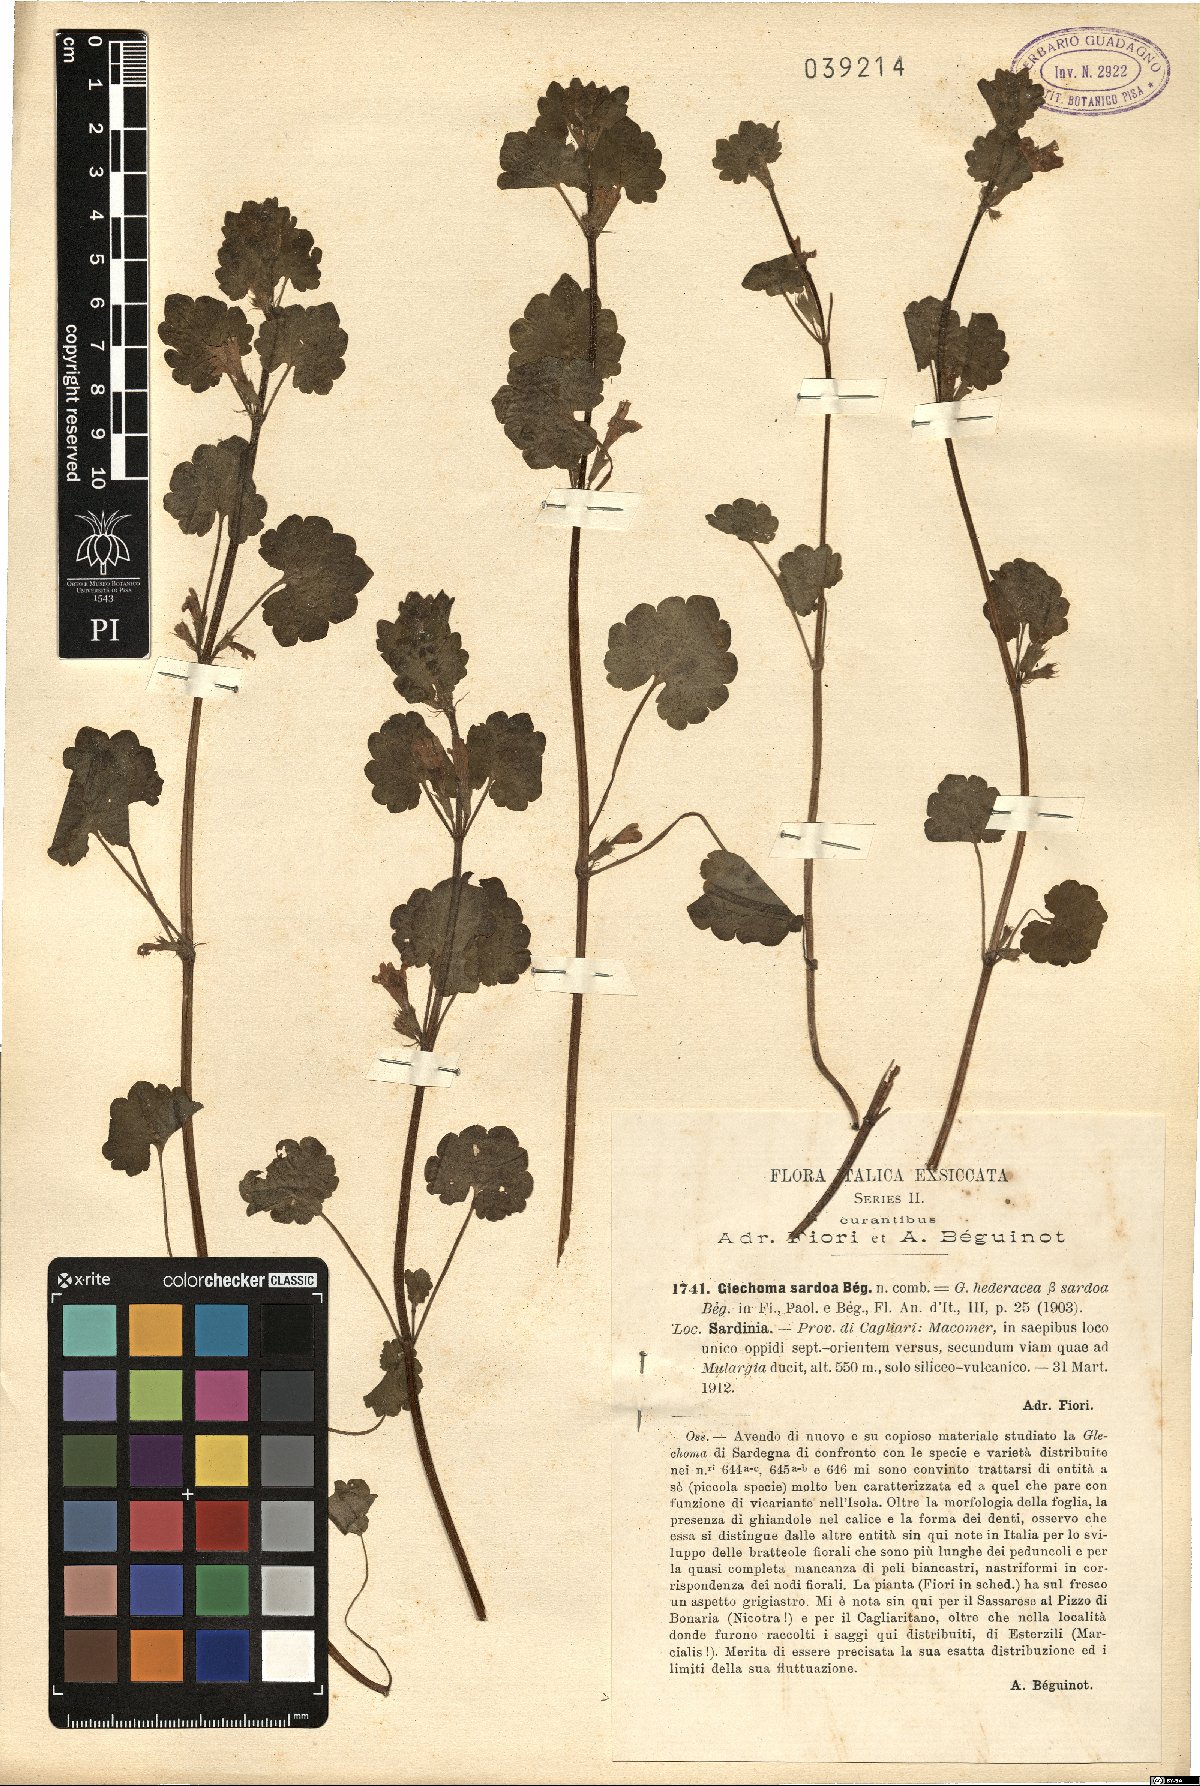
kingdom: Plantae
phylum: Tracheophyta
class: Magnoliopsida
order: Lamiales
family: Lamiaceae
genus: Glechoma
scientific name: Glechoma sardoa
